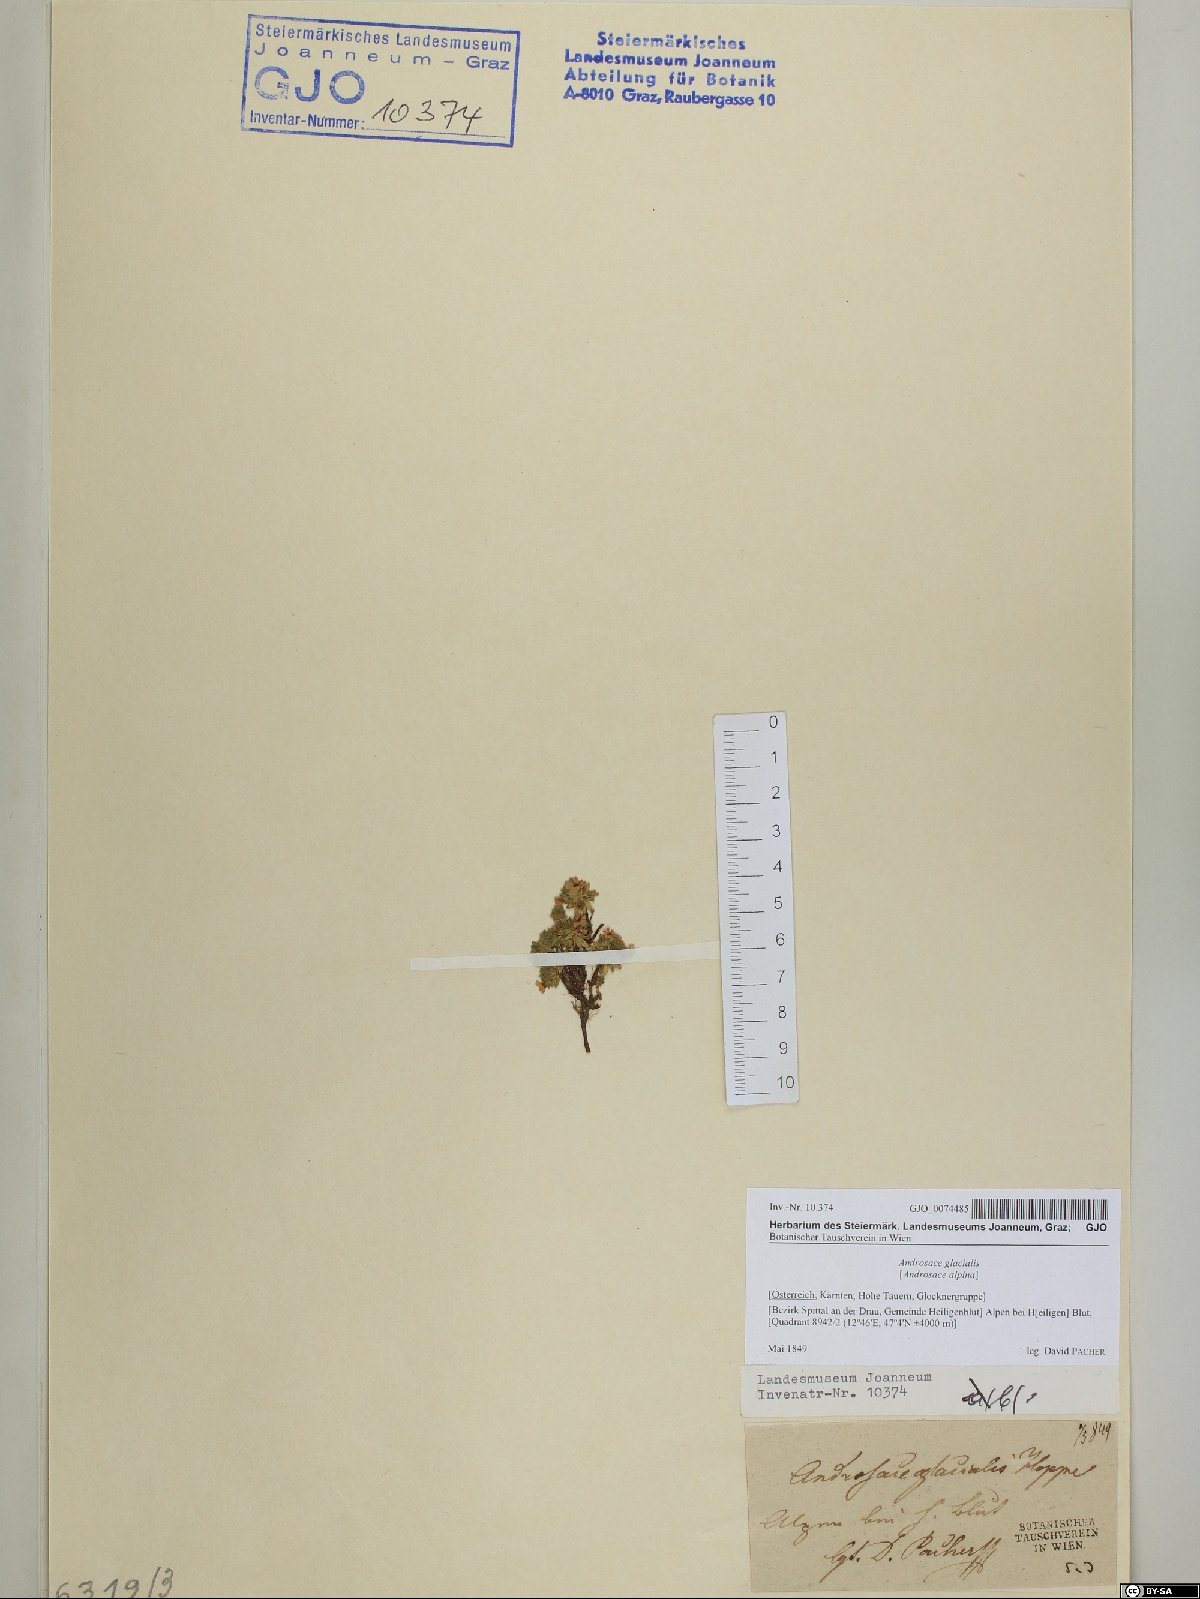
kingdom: Plantae
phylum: Tracheophyta
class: Magnoliopsida
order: Ericales
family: Primulaceae
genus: Androsace
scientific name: Androsace alpina
